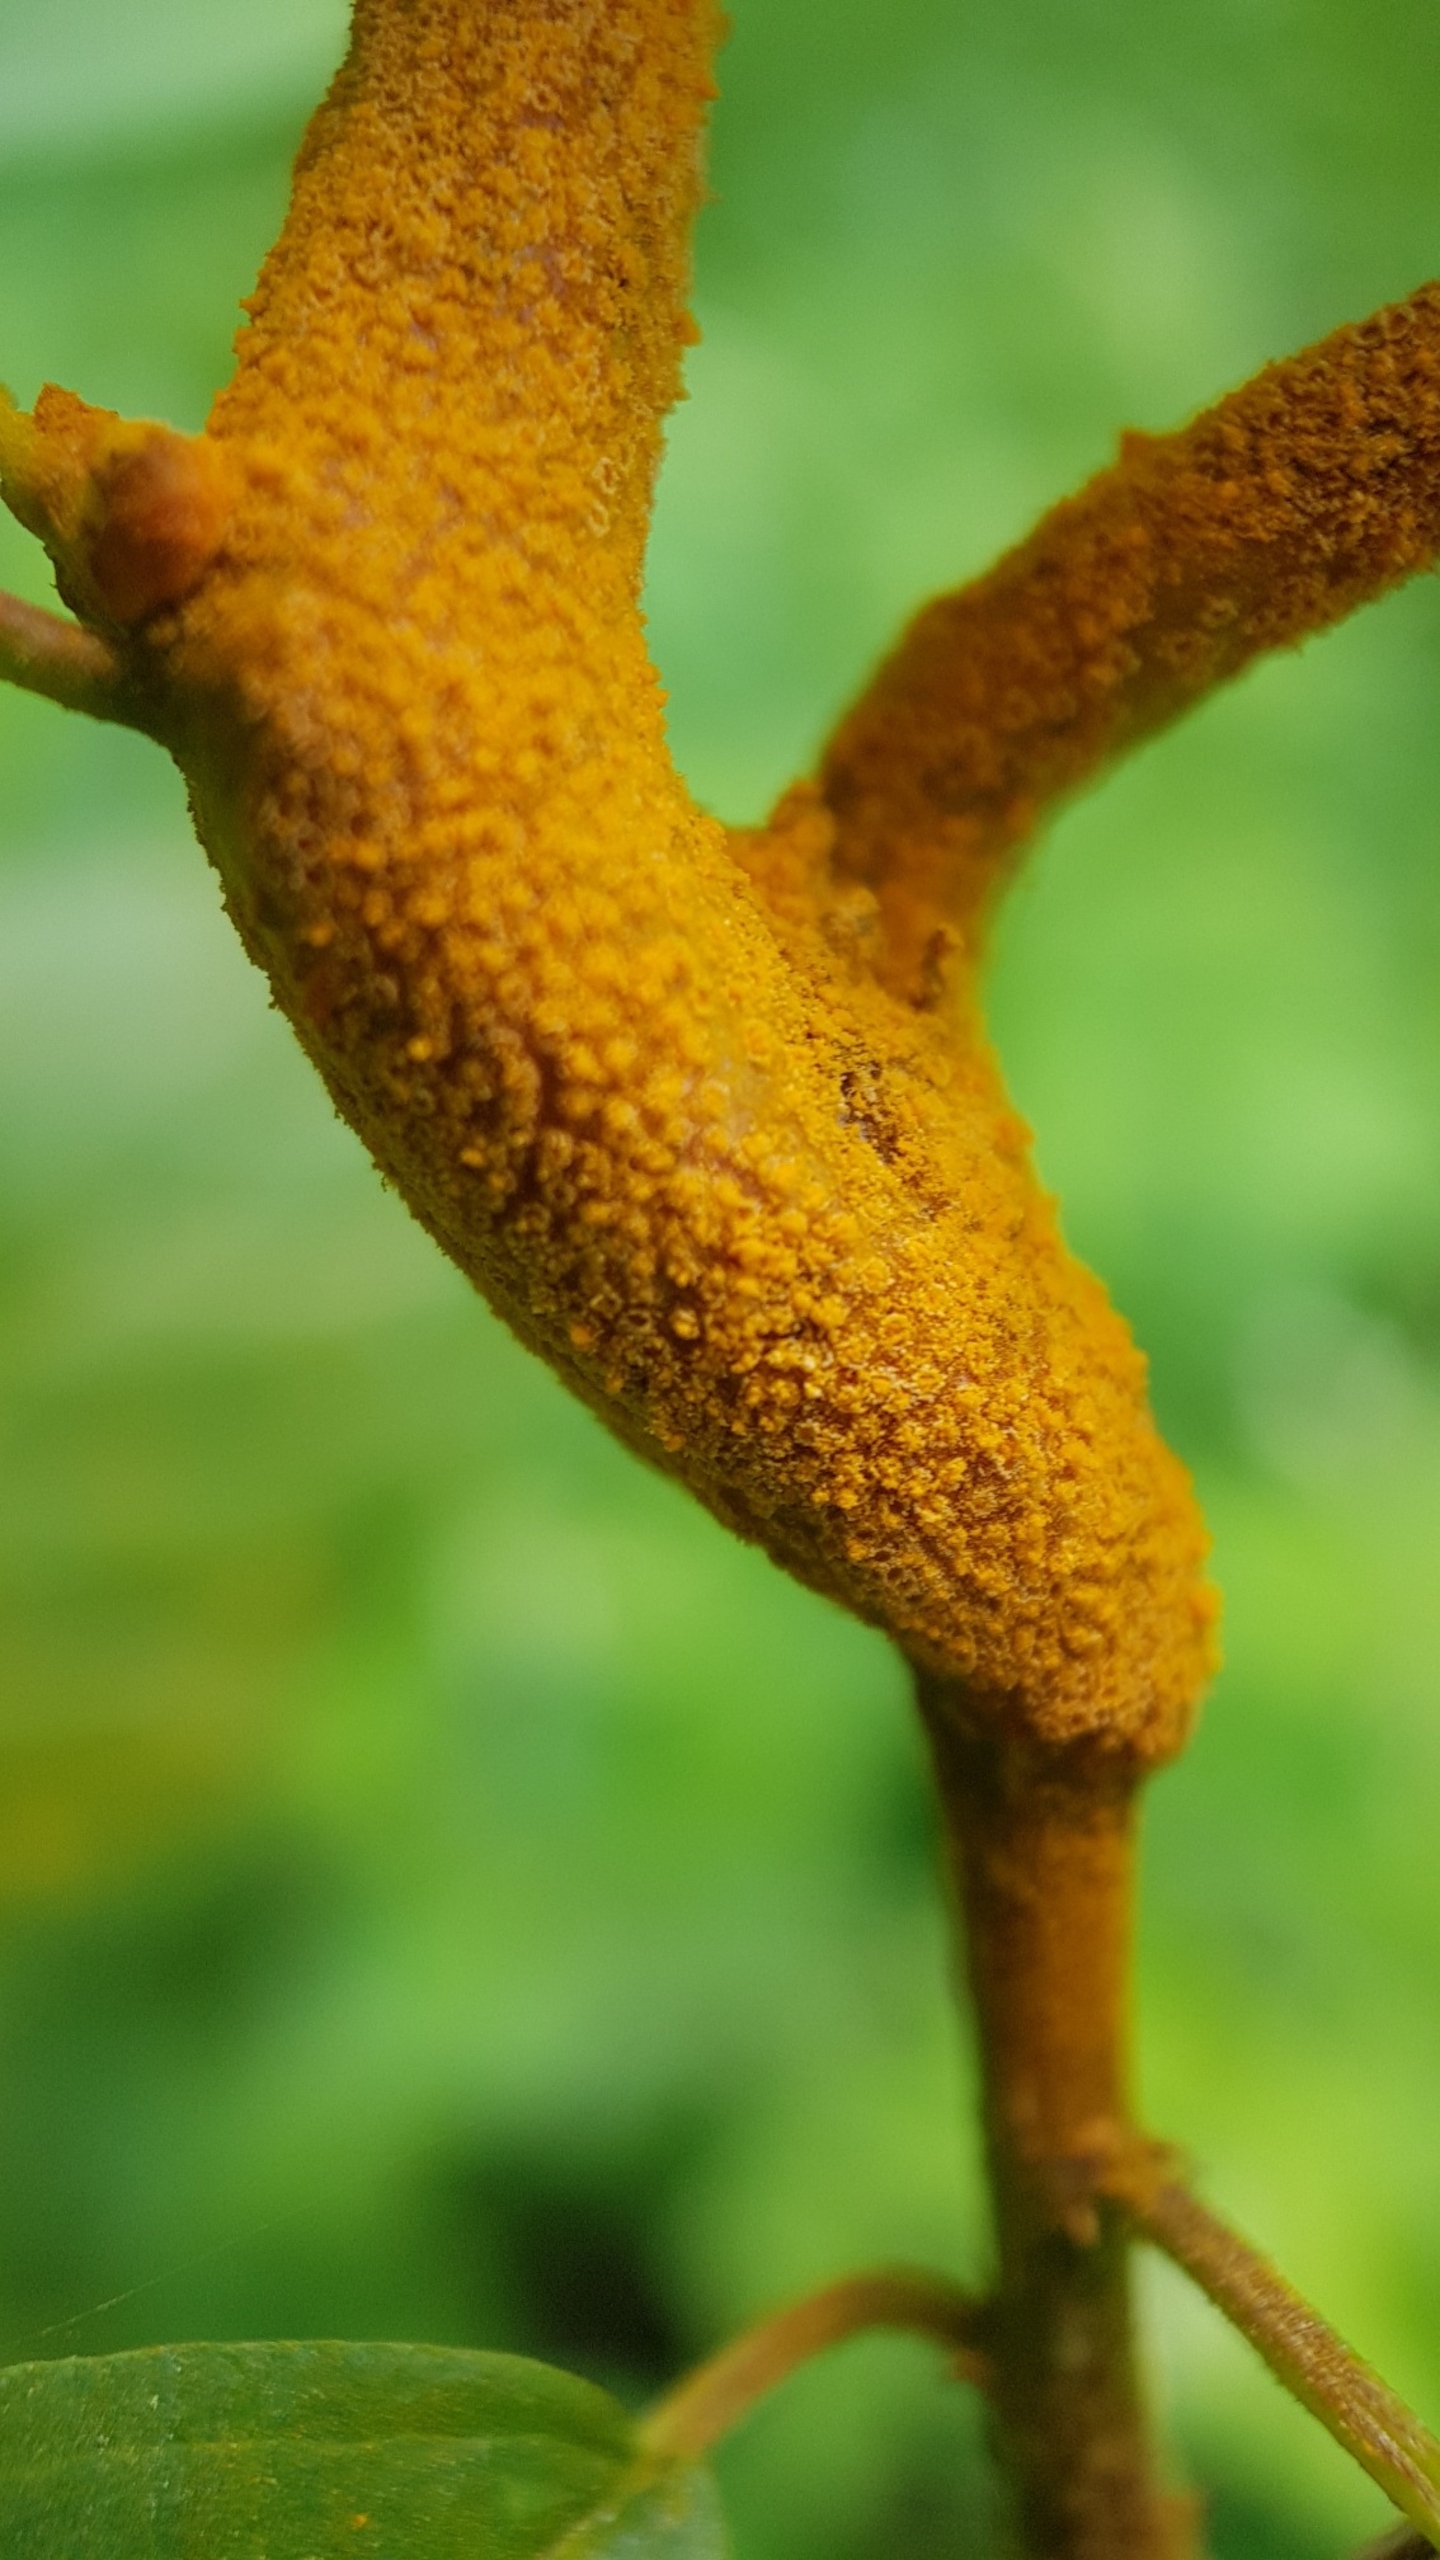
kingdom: Fungi
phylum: Basidiomycota
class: Pucciniomycetes
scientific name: Pucciniomycetes
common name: Rustsvampeklassen
